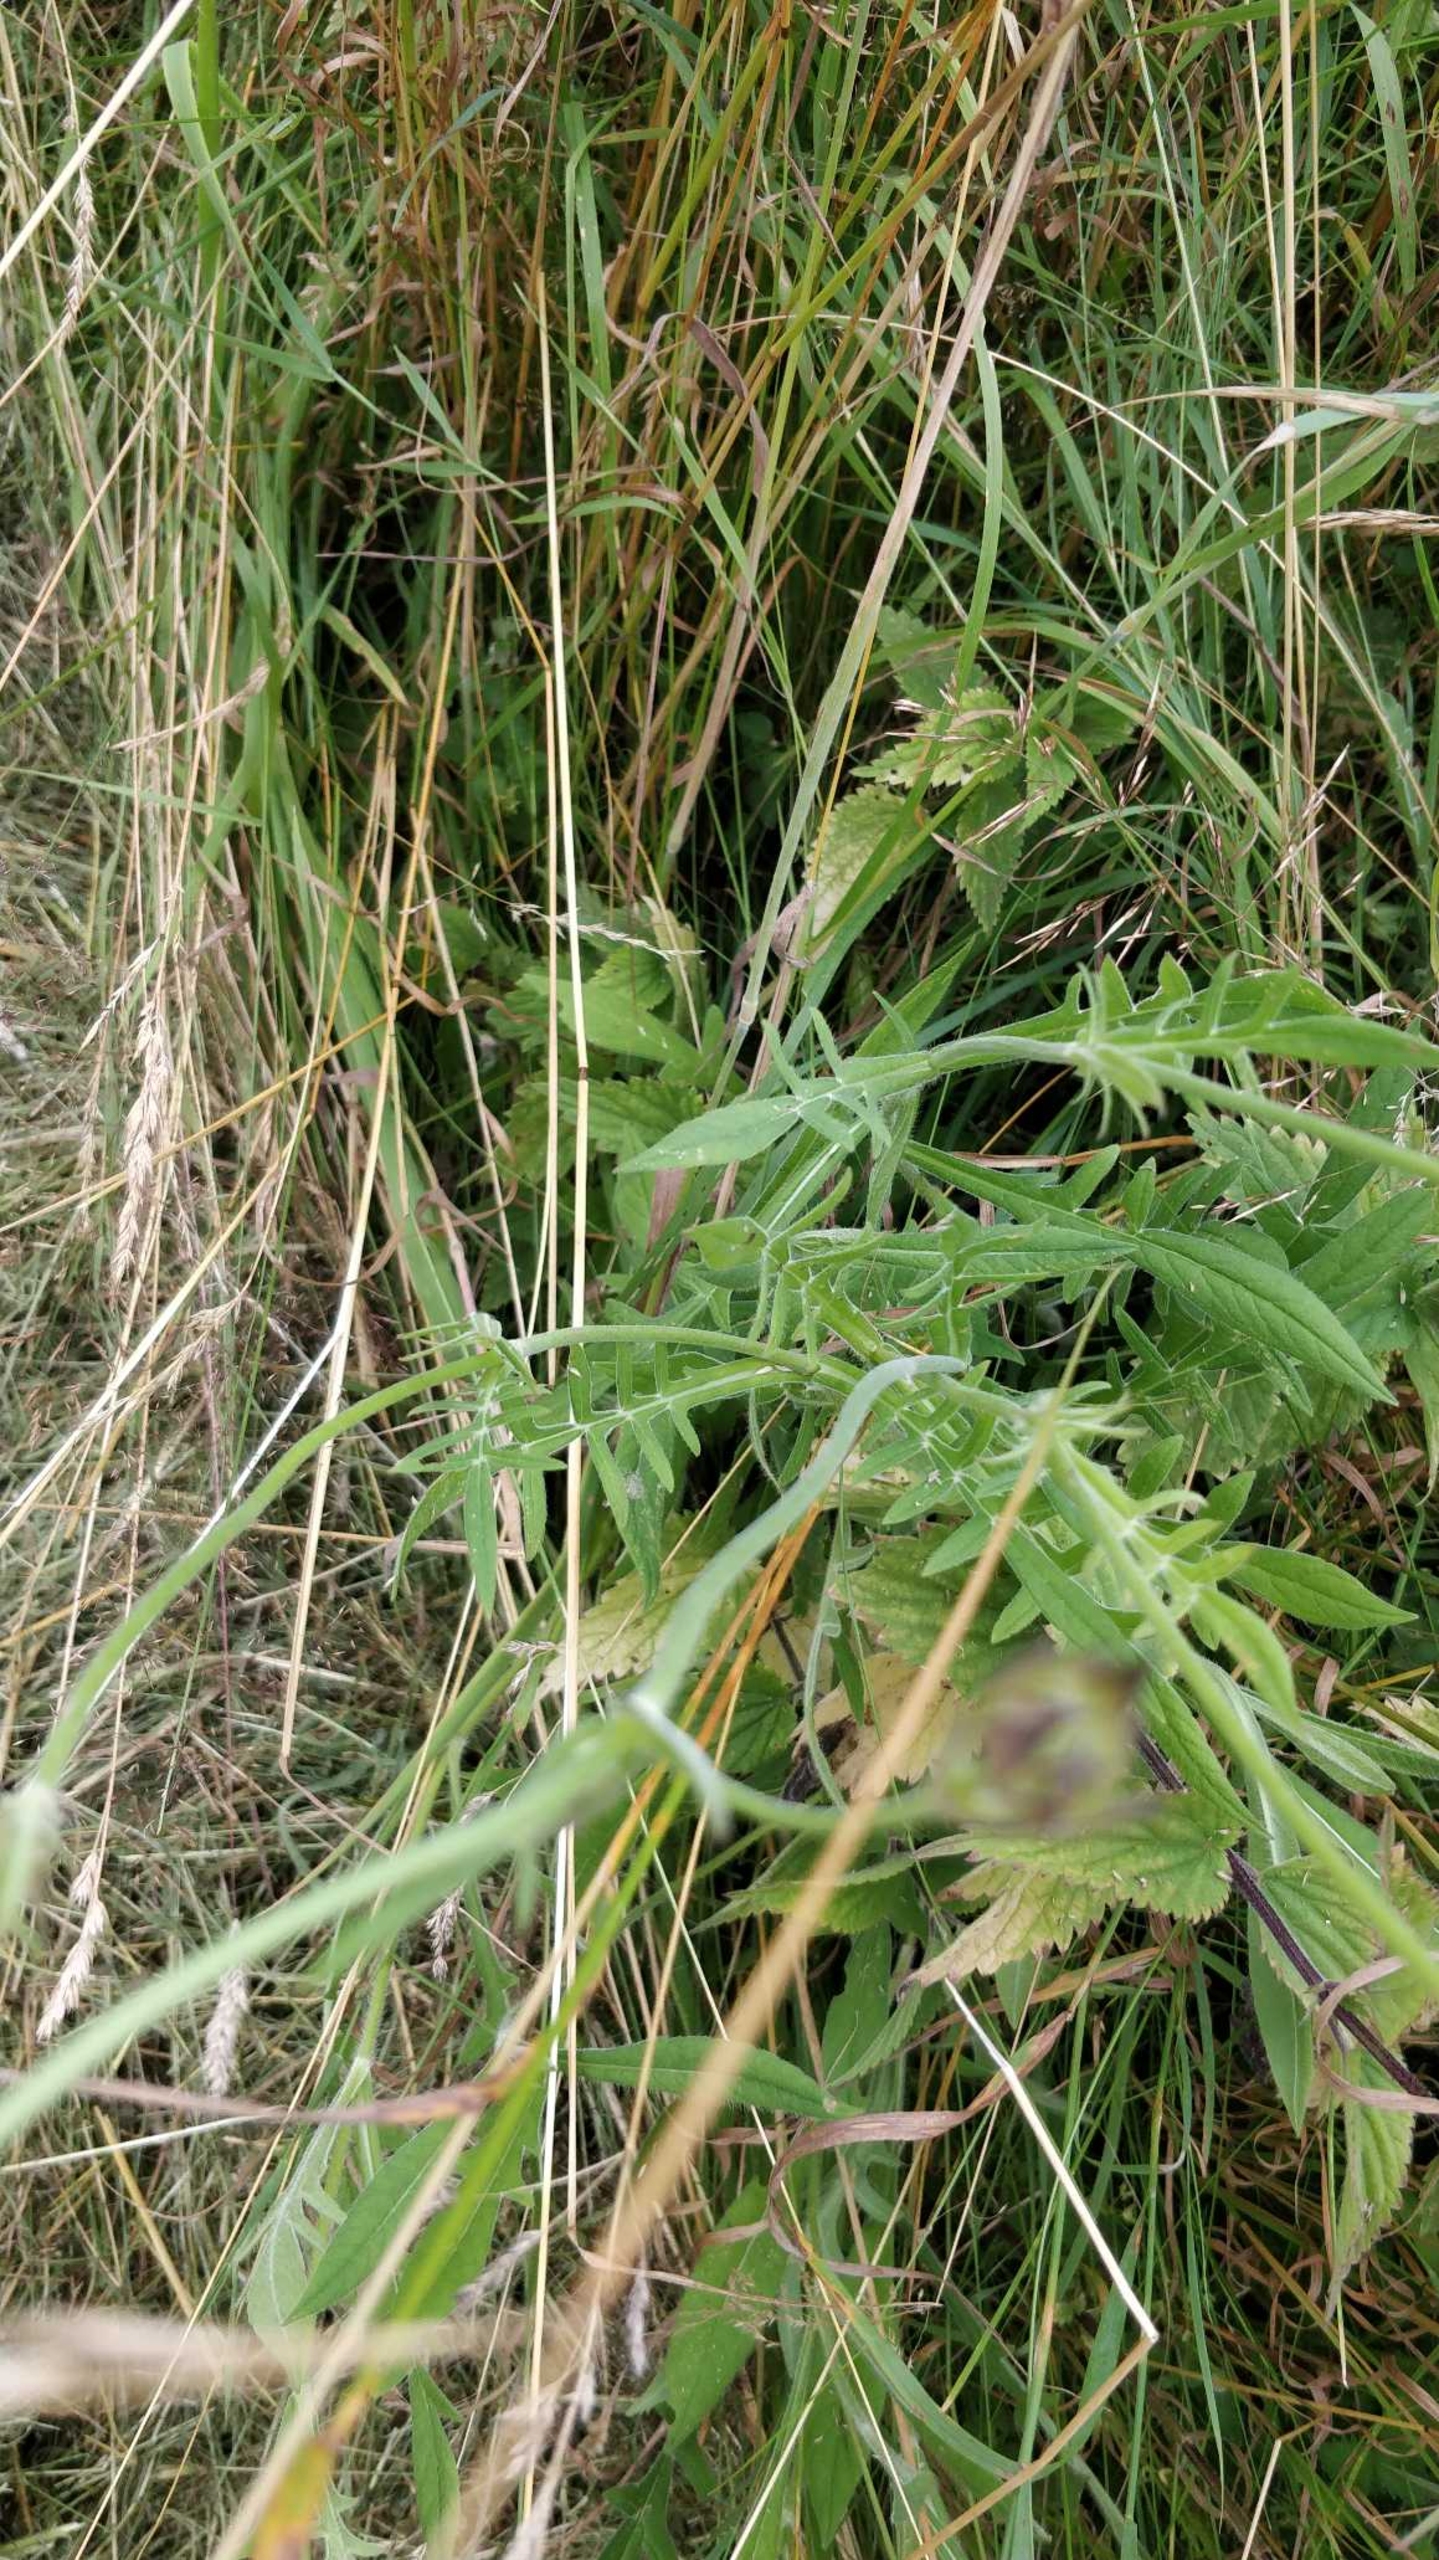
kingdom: Plantae
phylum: Tracheophyta
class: Magnoliopsida
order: Dipsacales
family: Caprifoliaceae
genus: Knautia
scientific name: Knautia arvensis
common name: Blåhat
